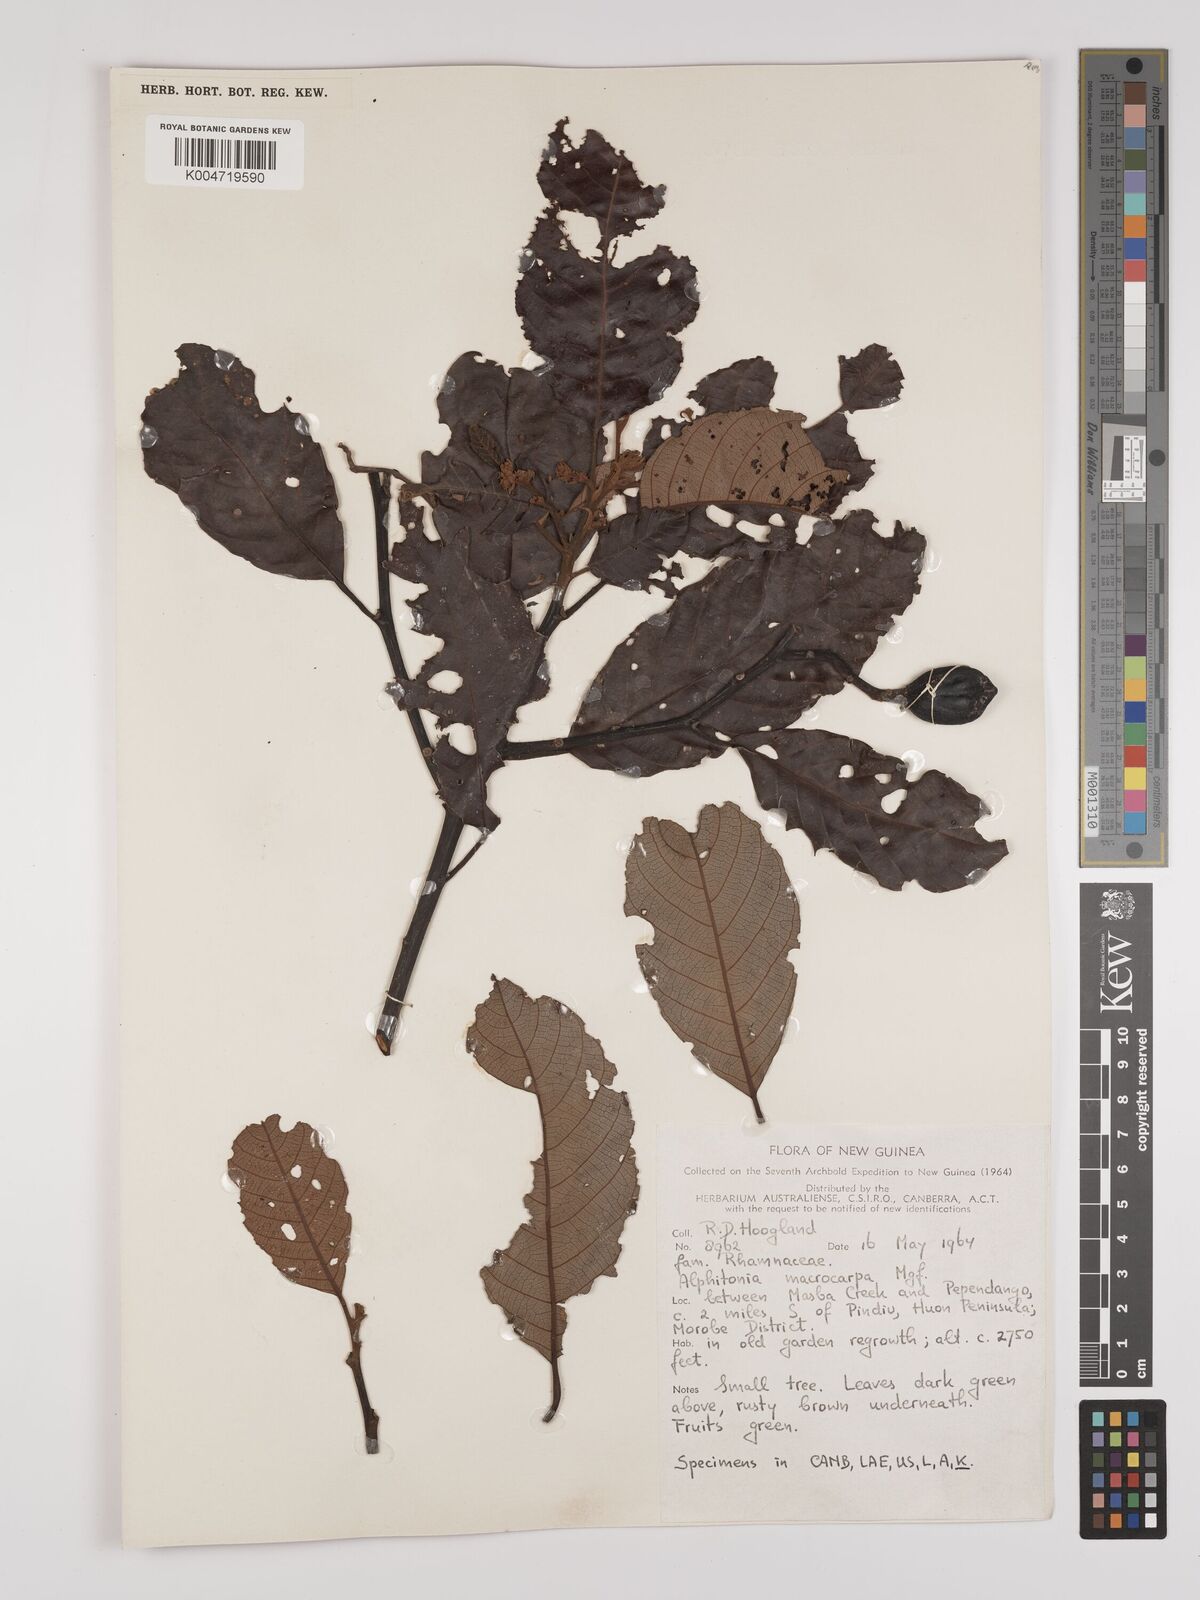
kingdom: Plantae
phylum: Tracheophyta
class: Magnoliopsida
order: Rosales
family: Rhamnaceae
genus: Alphitonia
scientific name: Alphitonia macrocarpa
